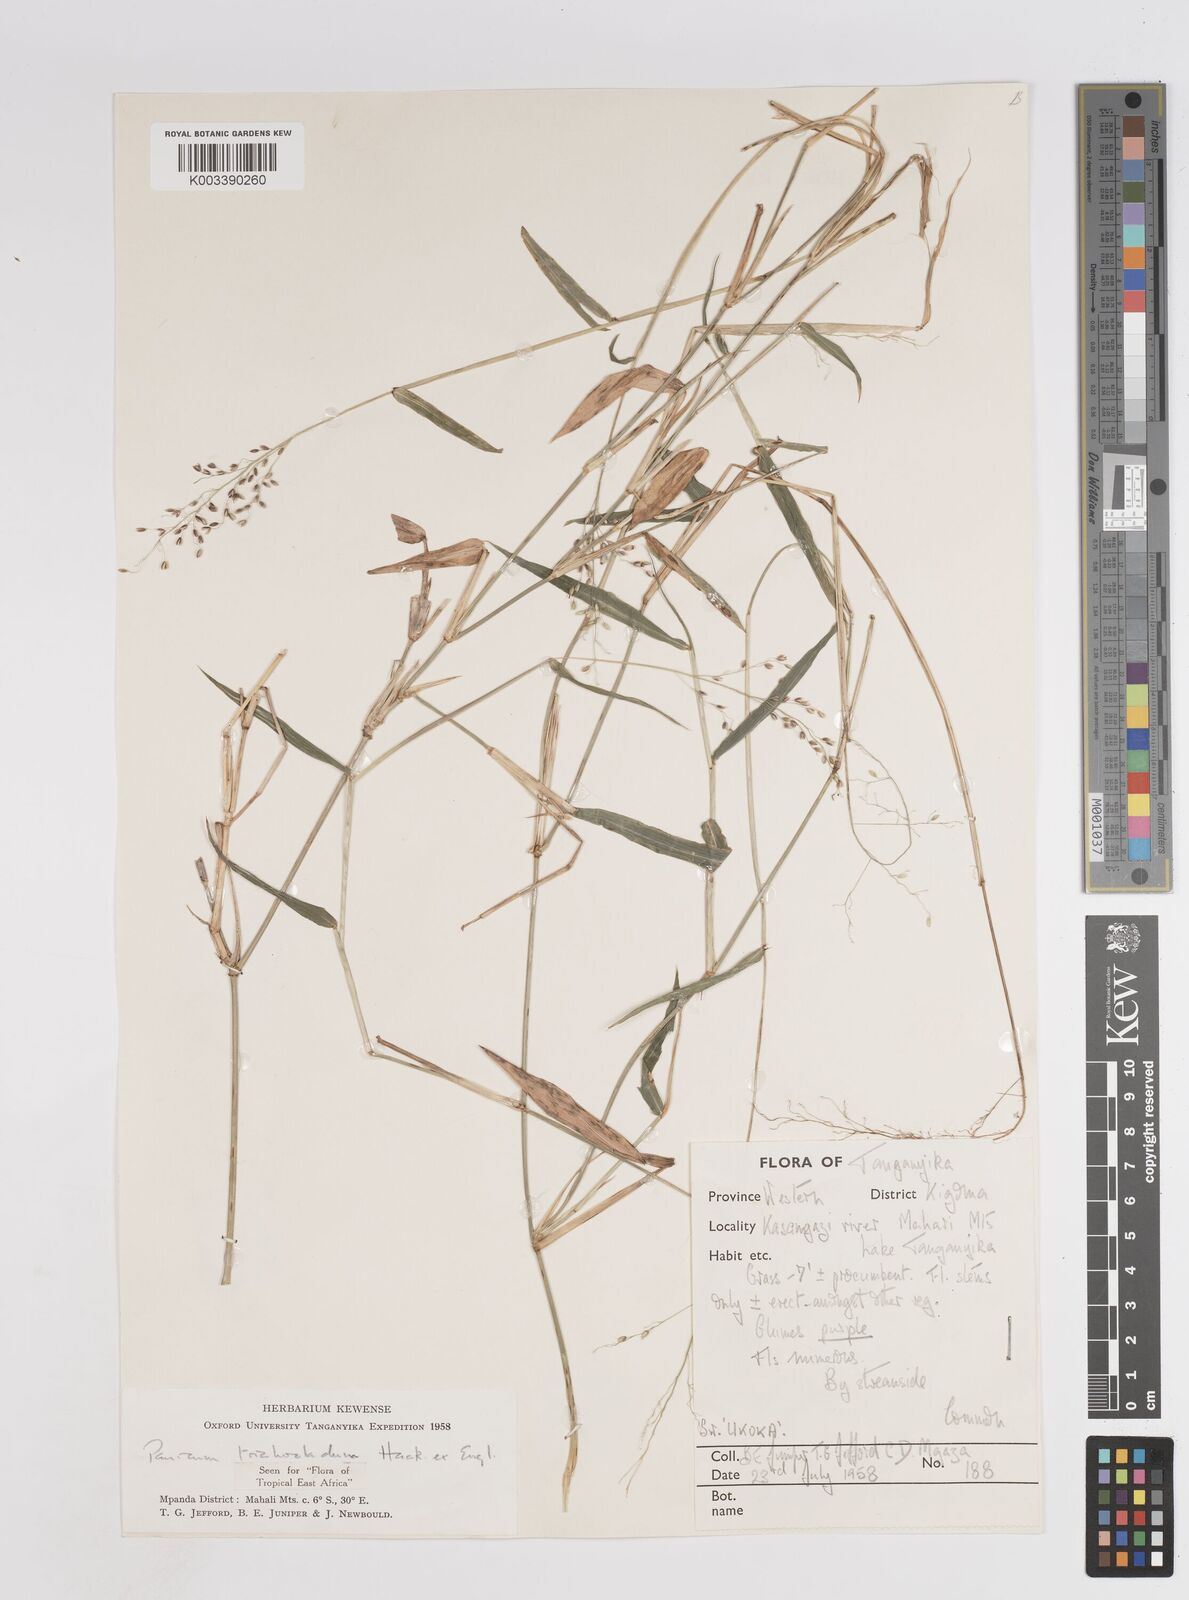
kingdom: Plantae
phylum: Tracheophyta
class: Liliopsida
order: Poales
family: Poaceae
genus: Panicum
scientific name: Panicum trichocladum
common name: Donkey grass
